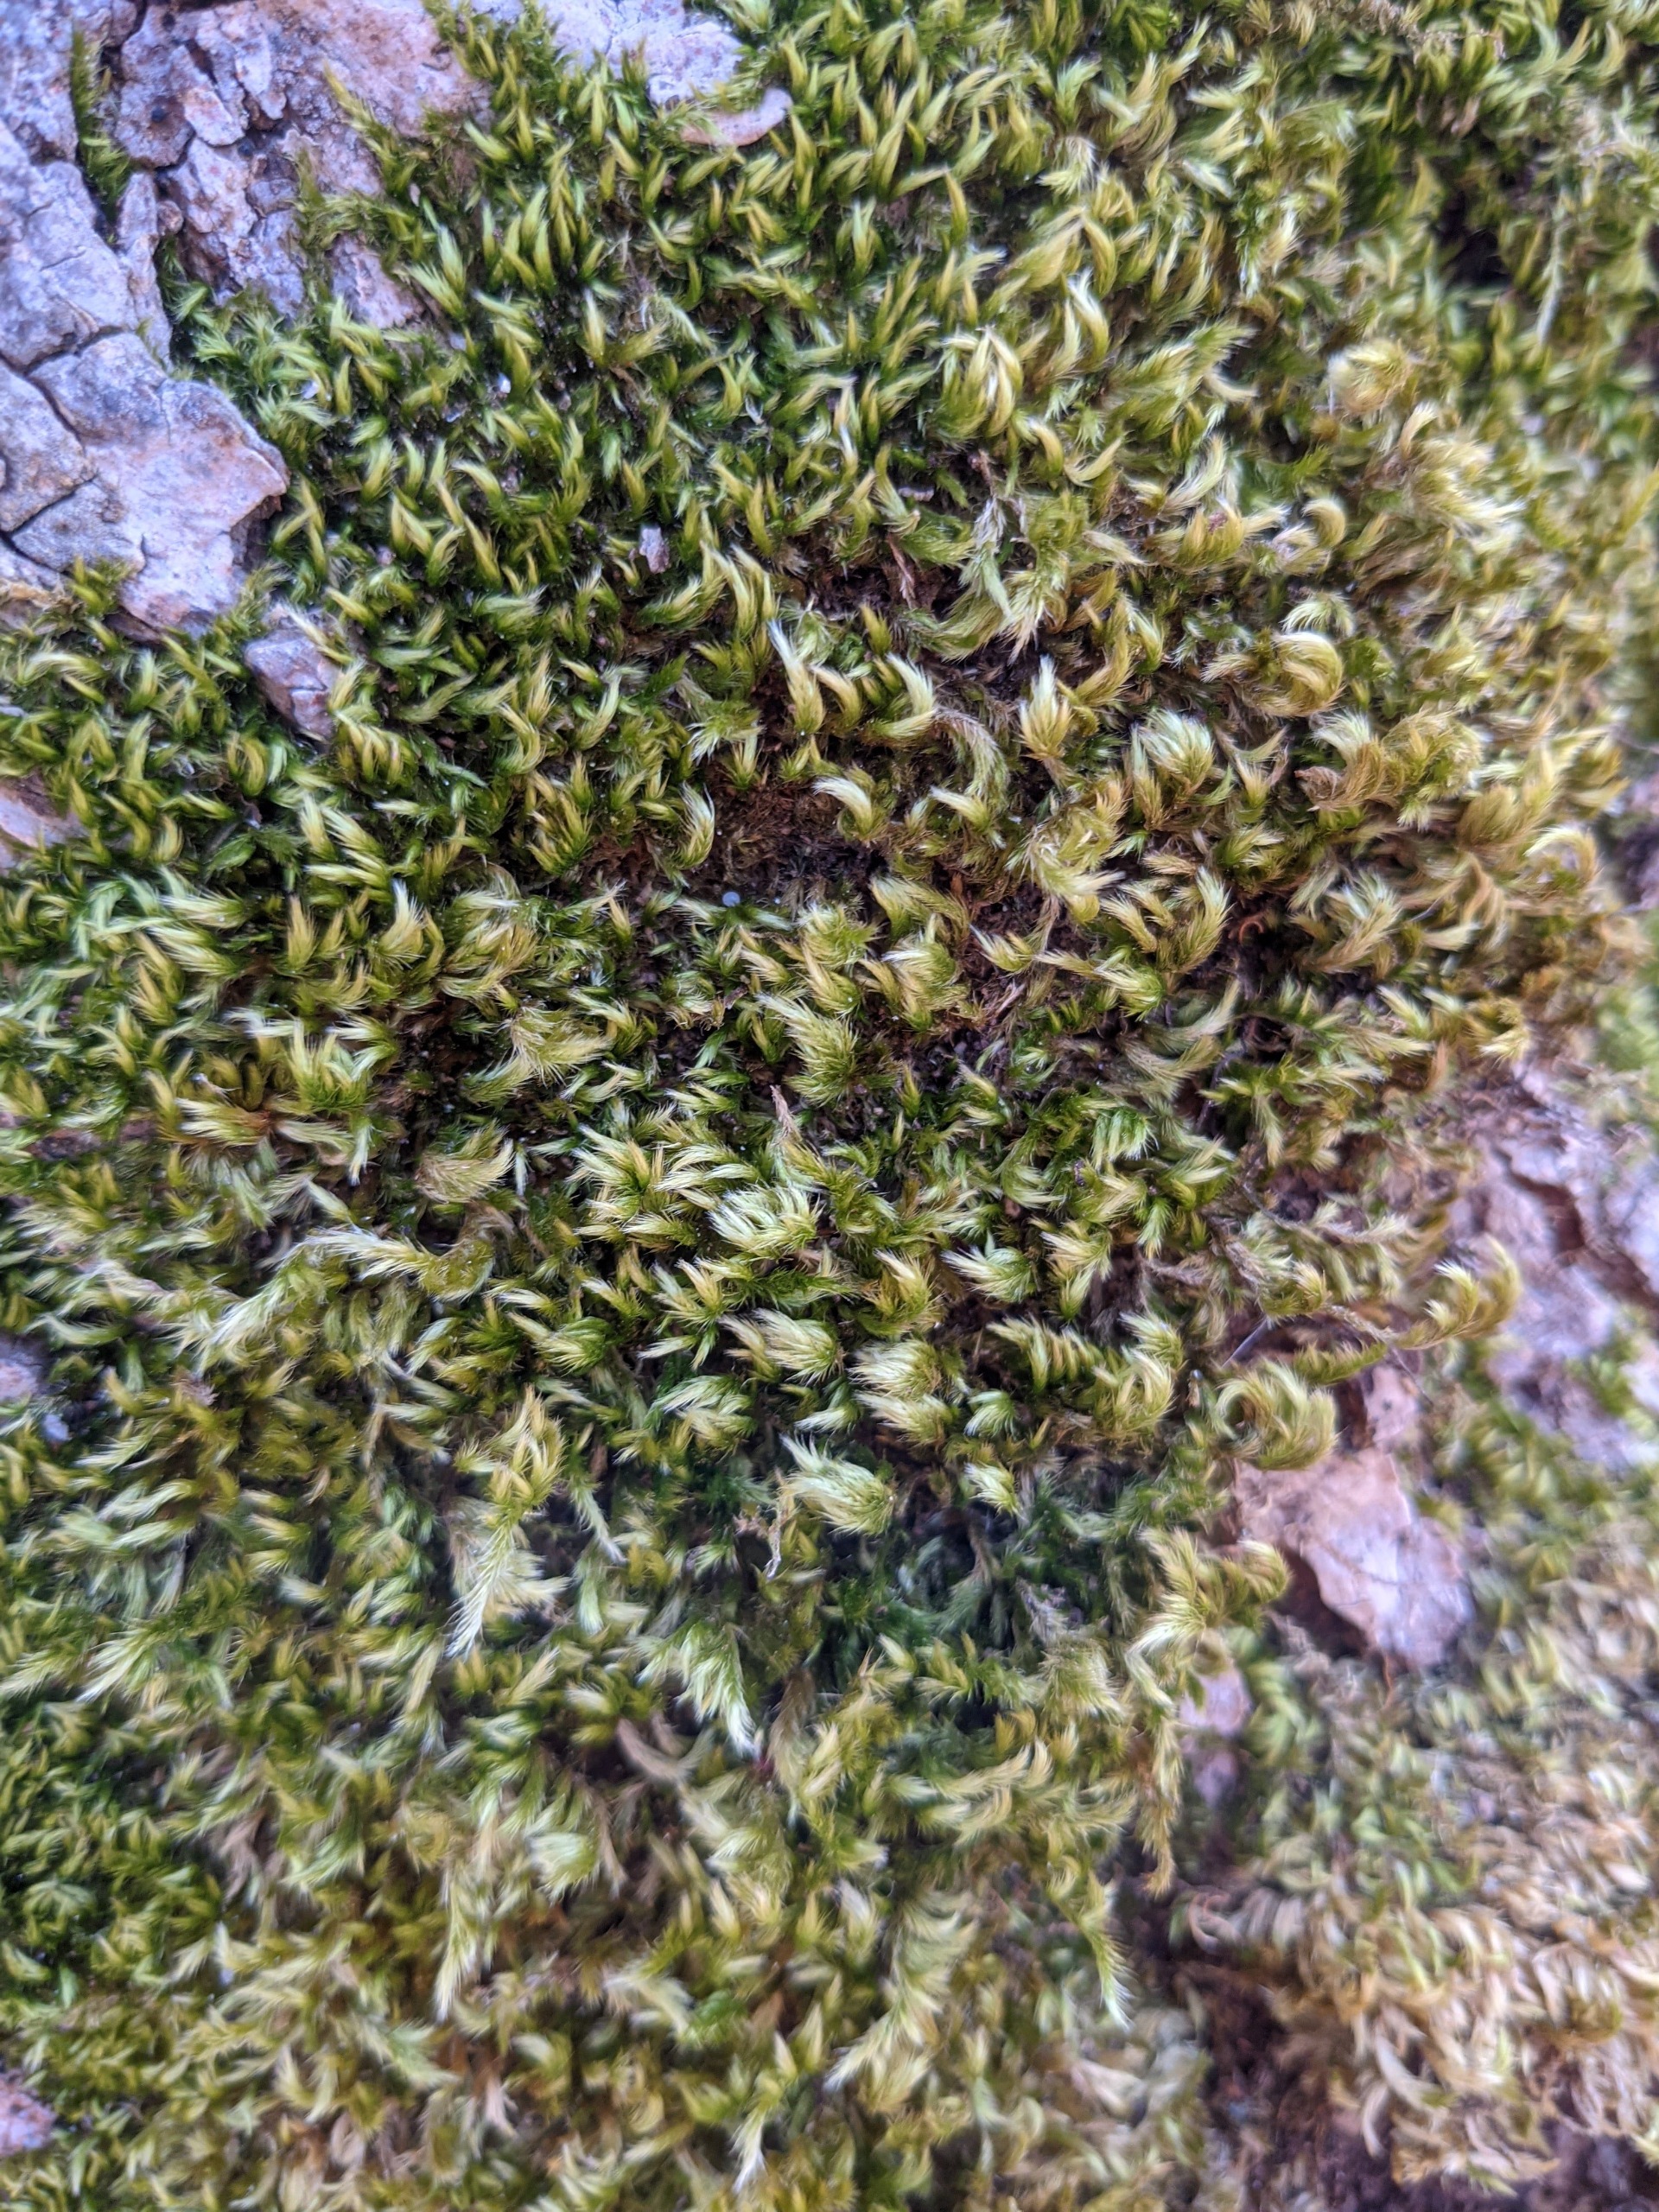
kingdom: Plantae
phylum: Bryophyta
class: Bryopsida
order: Hypnales
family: Brachytheciaceae
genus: Homalothecium
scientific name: Homalothecium sericeum
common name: Krybende silkemos
